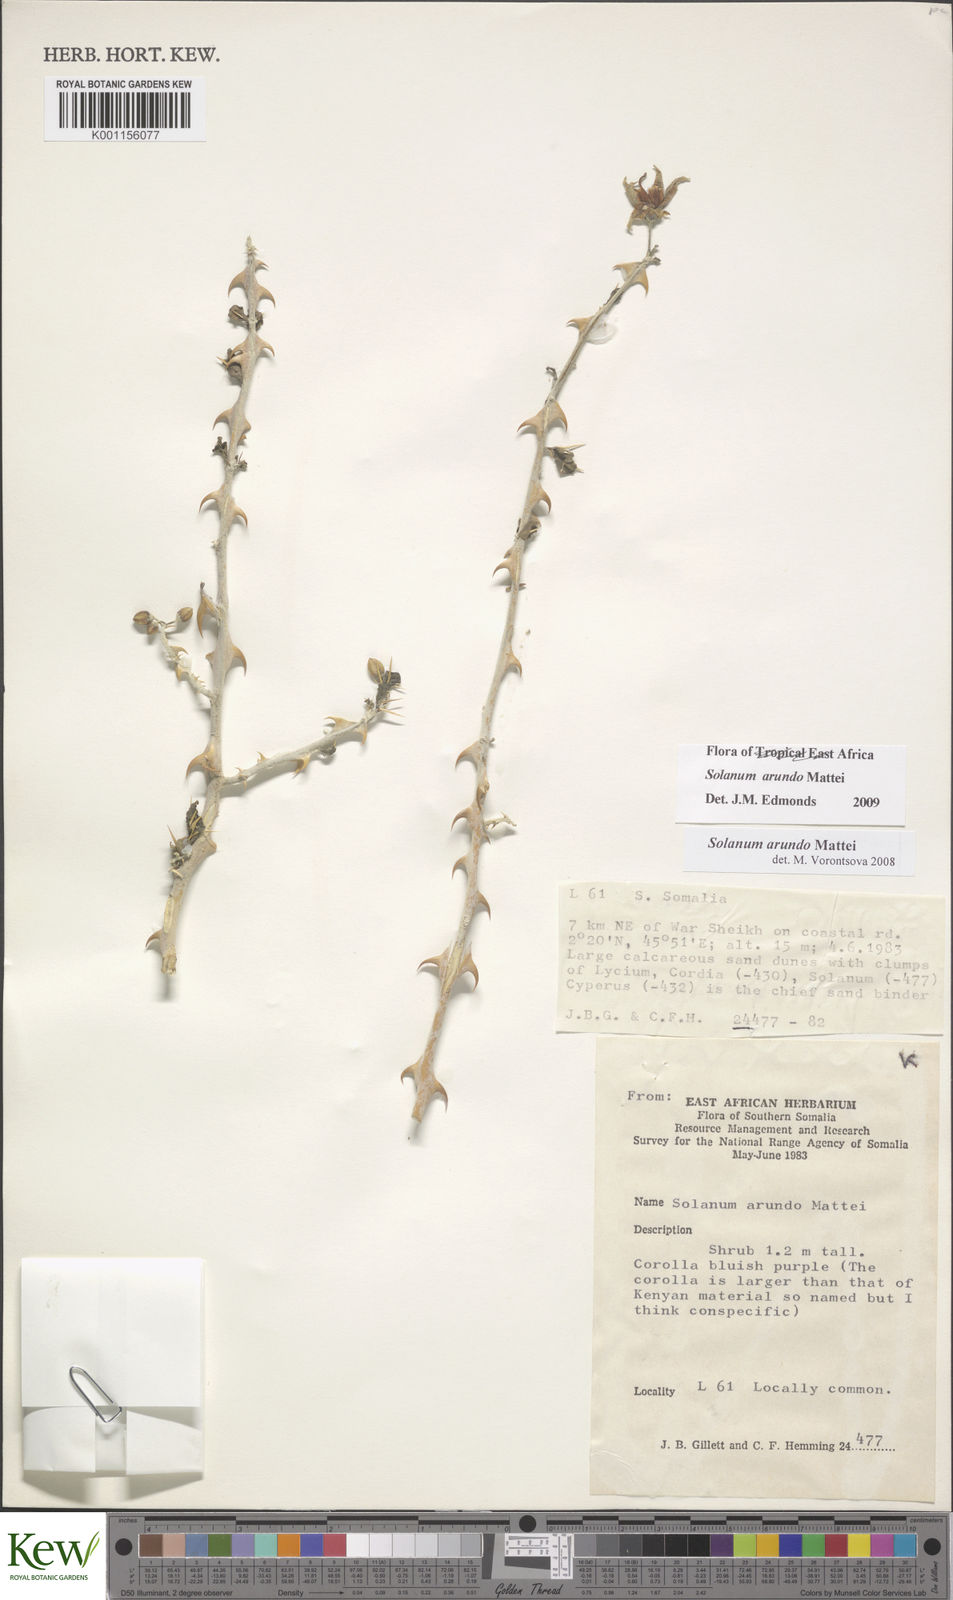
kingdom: Plantae
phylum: Tracheophyta
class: Magnoliopsida
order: Solanales
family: Solanaceae
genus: Solanum
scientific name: Solanum arundo
